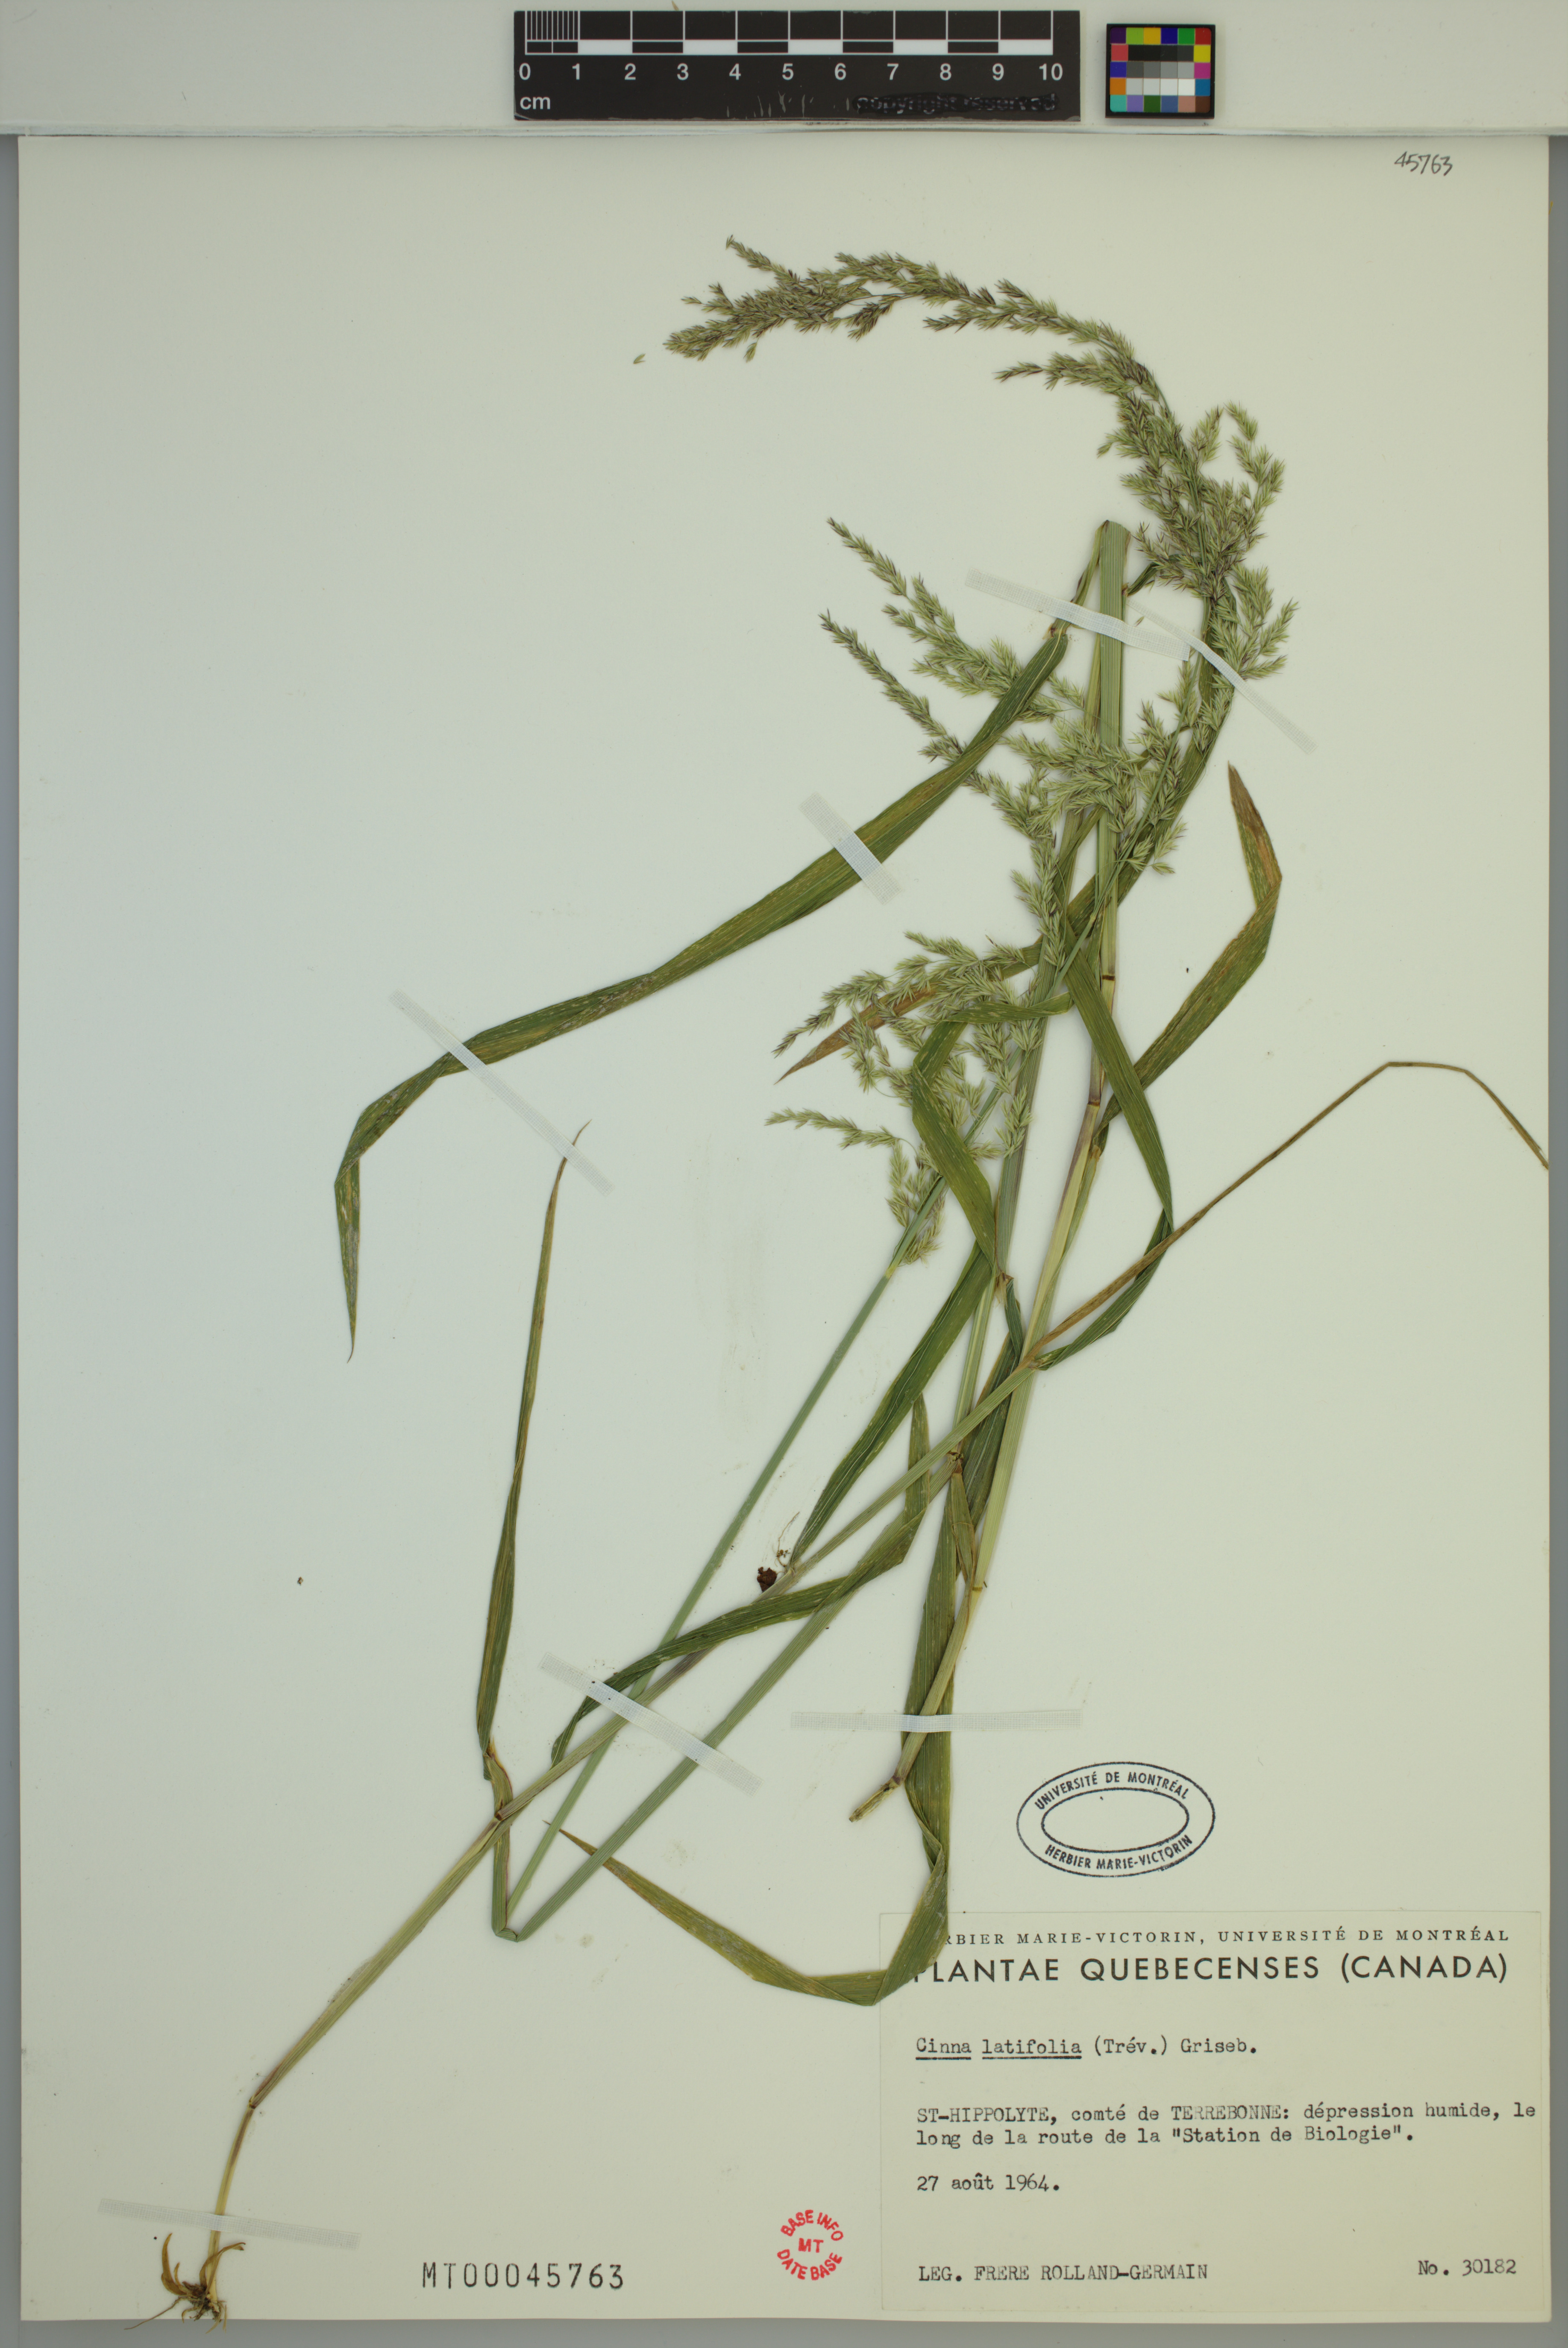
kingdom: Plantae
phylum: Tracheophyta
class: Liliopsida
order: Poales
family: Poaceae
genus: Cinna
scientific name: Cinna latifolia
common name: Drooping woodreed
